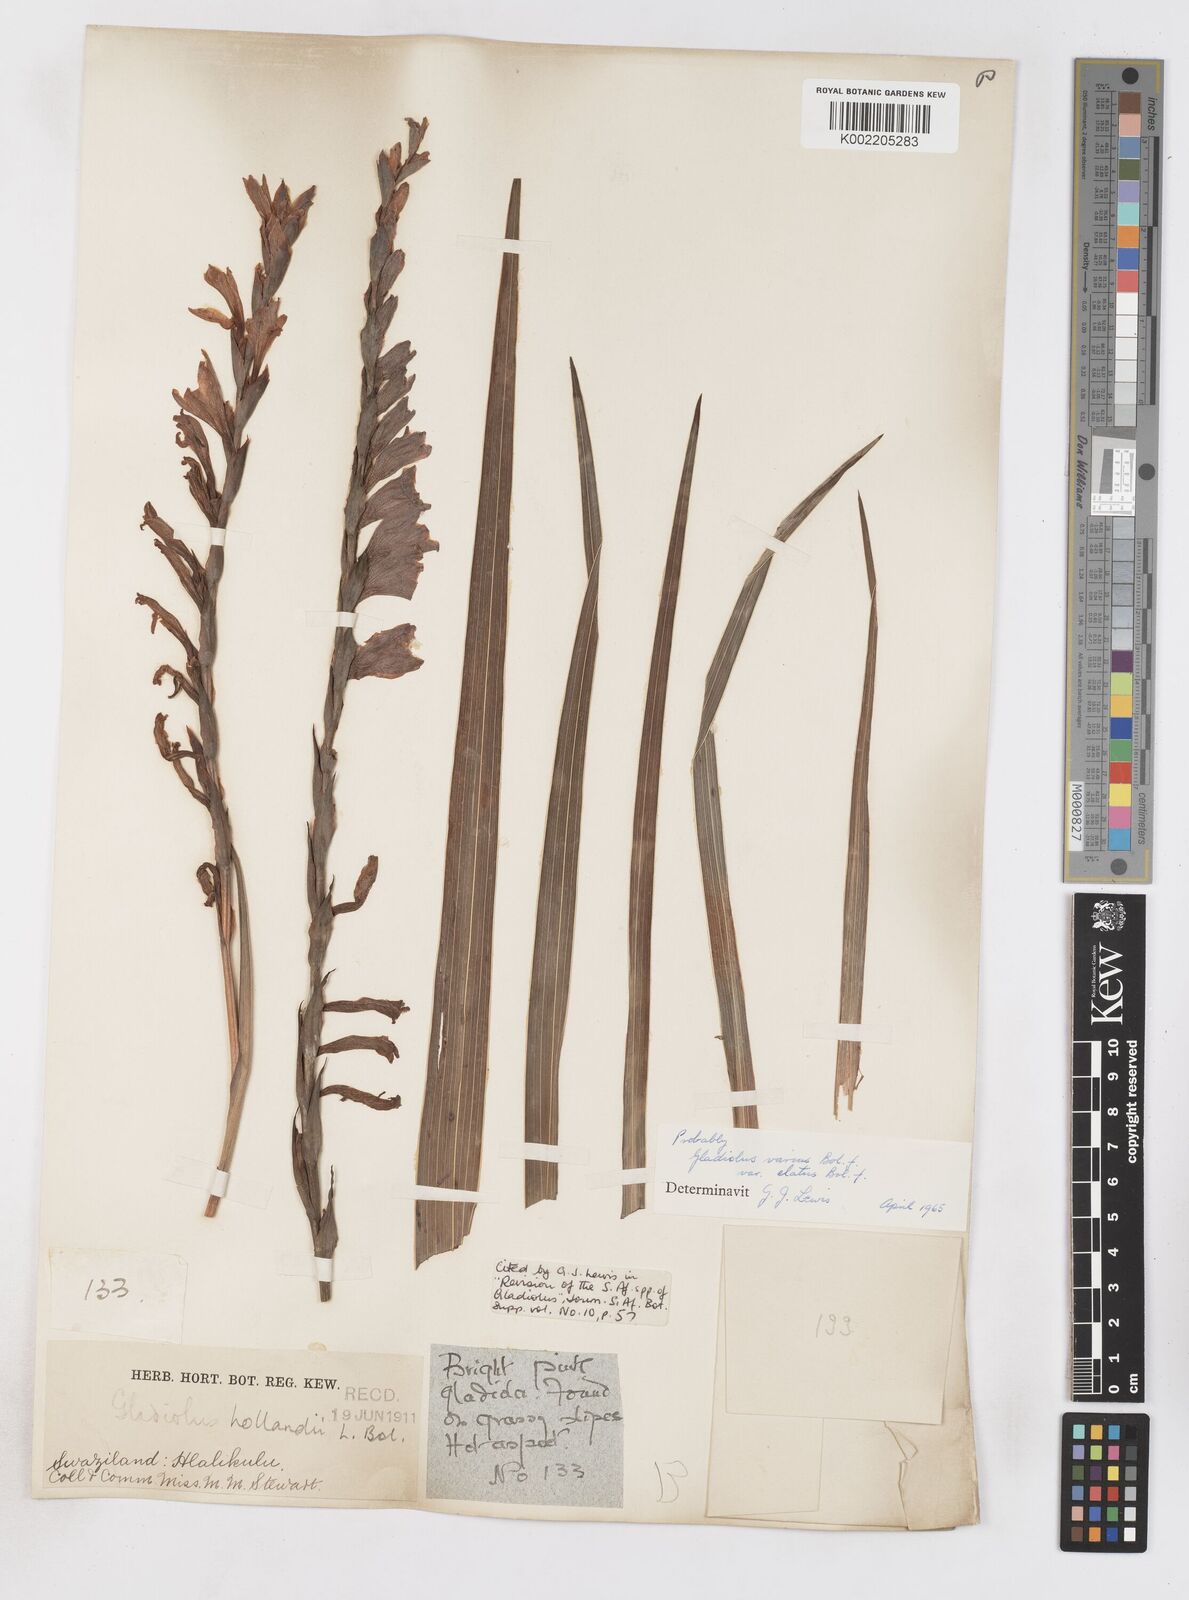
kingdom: Plantae
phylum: Tracheophyta
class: Liliopsida
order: Asparagales
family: Iridaceae
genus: Gladiolus
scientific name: Gladiolus hollandii
